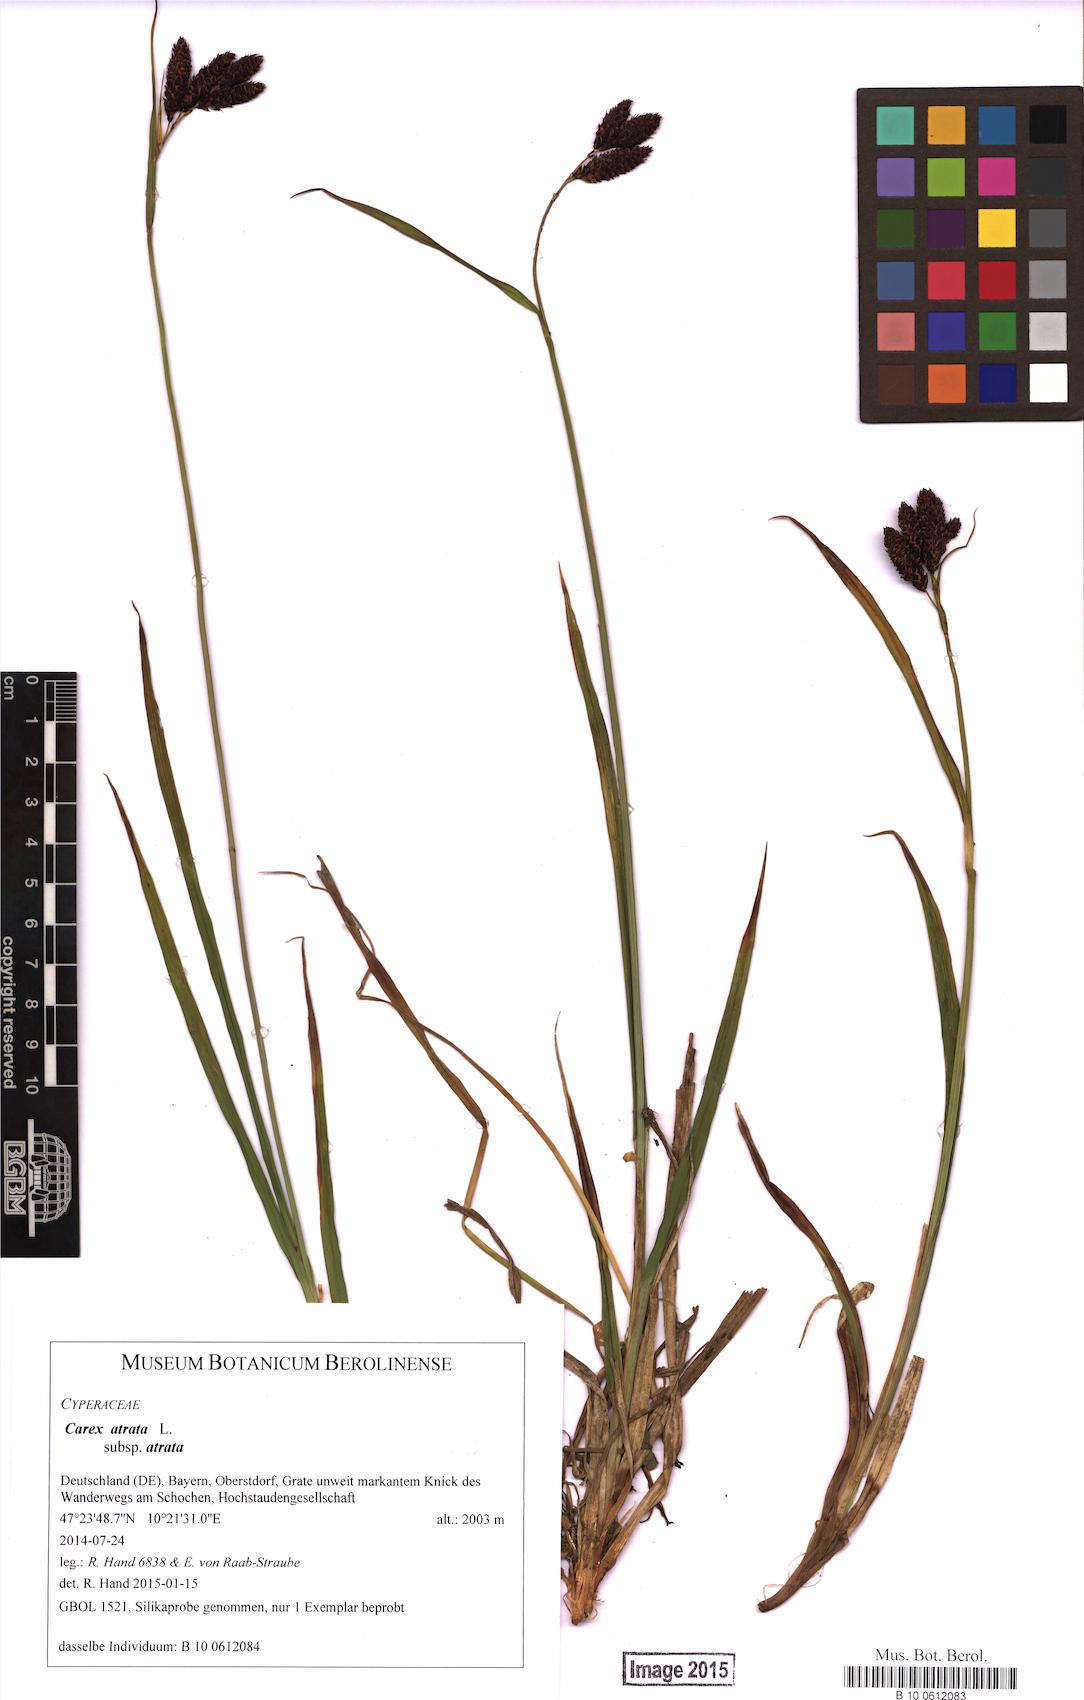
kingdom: Plantae
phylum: Tracheophyta
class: Liliopsida
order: Poales
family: Cyperaceae
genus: Carex
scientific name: Carex atrata
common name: Black alpine sedge
